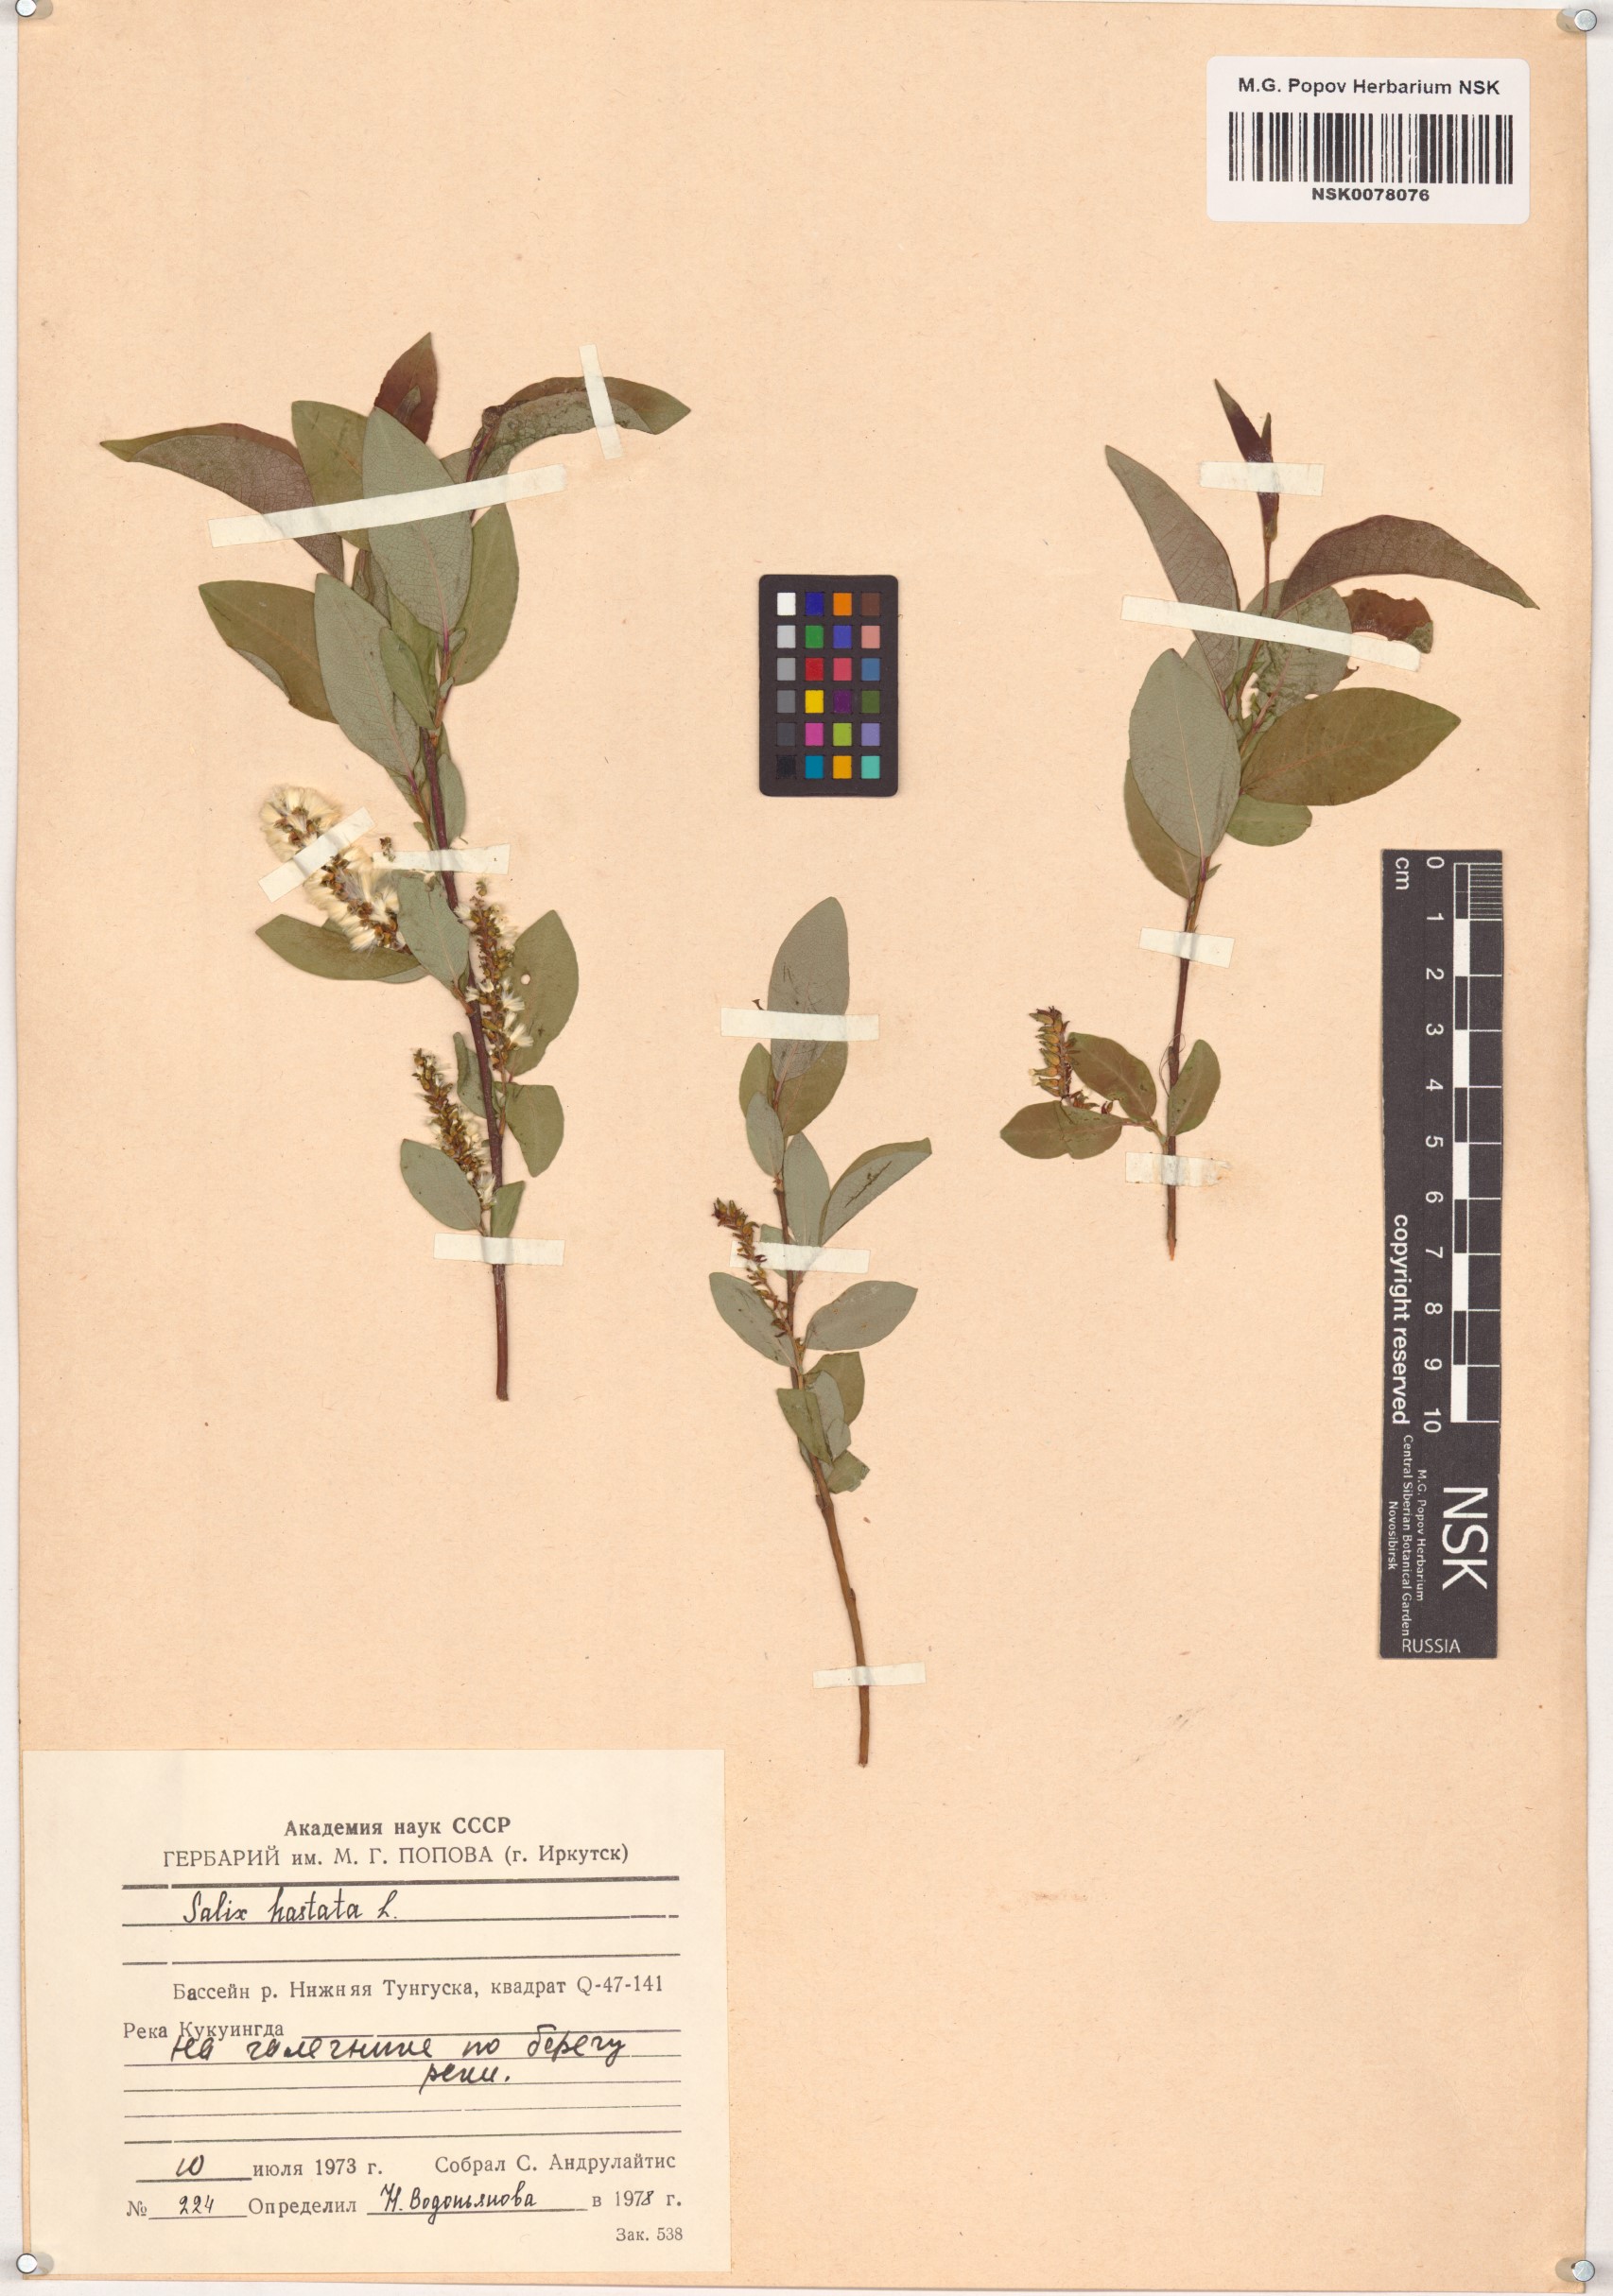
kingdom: Plantae
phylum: Tracheophyta
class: Magnoliopsida
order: Malpighiales
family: Salicaceae
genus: Salix
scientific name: Salix hastata
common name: Halberd willow
